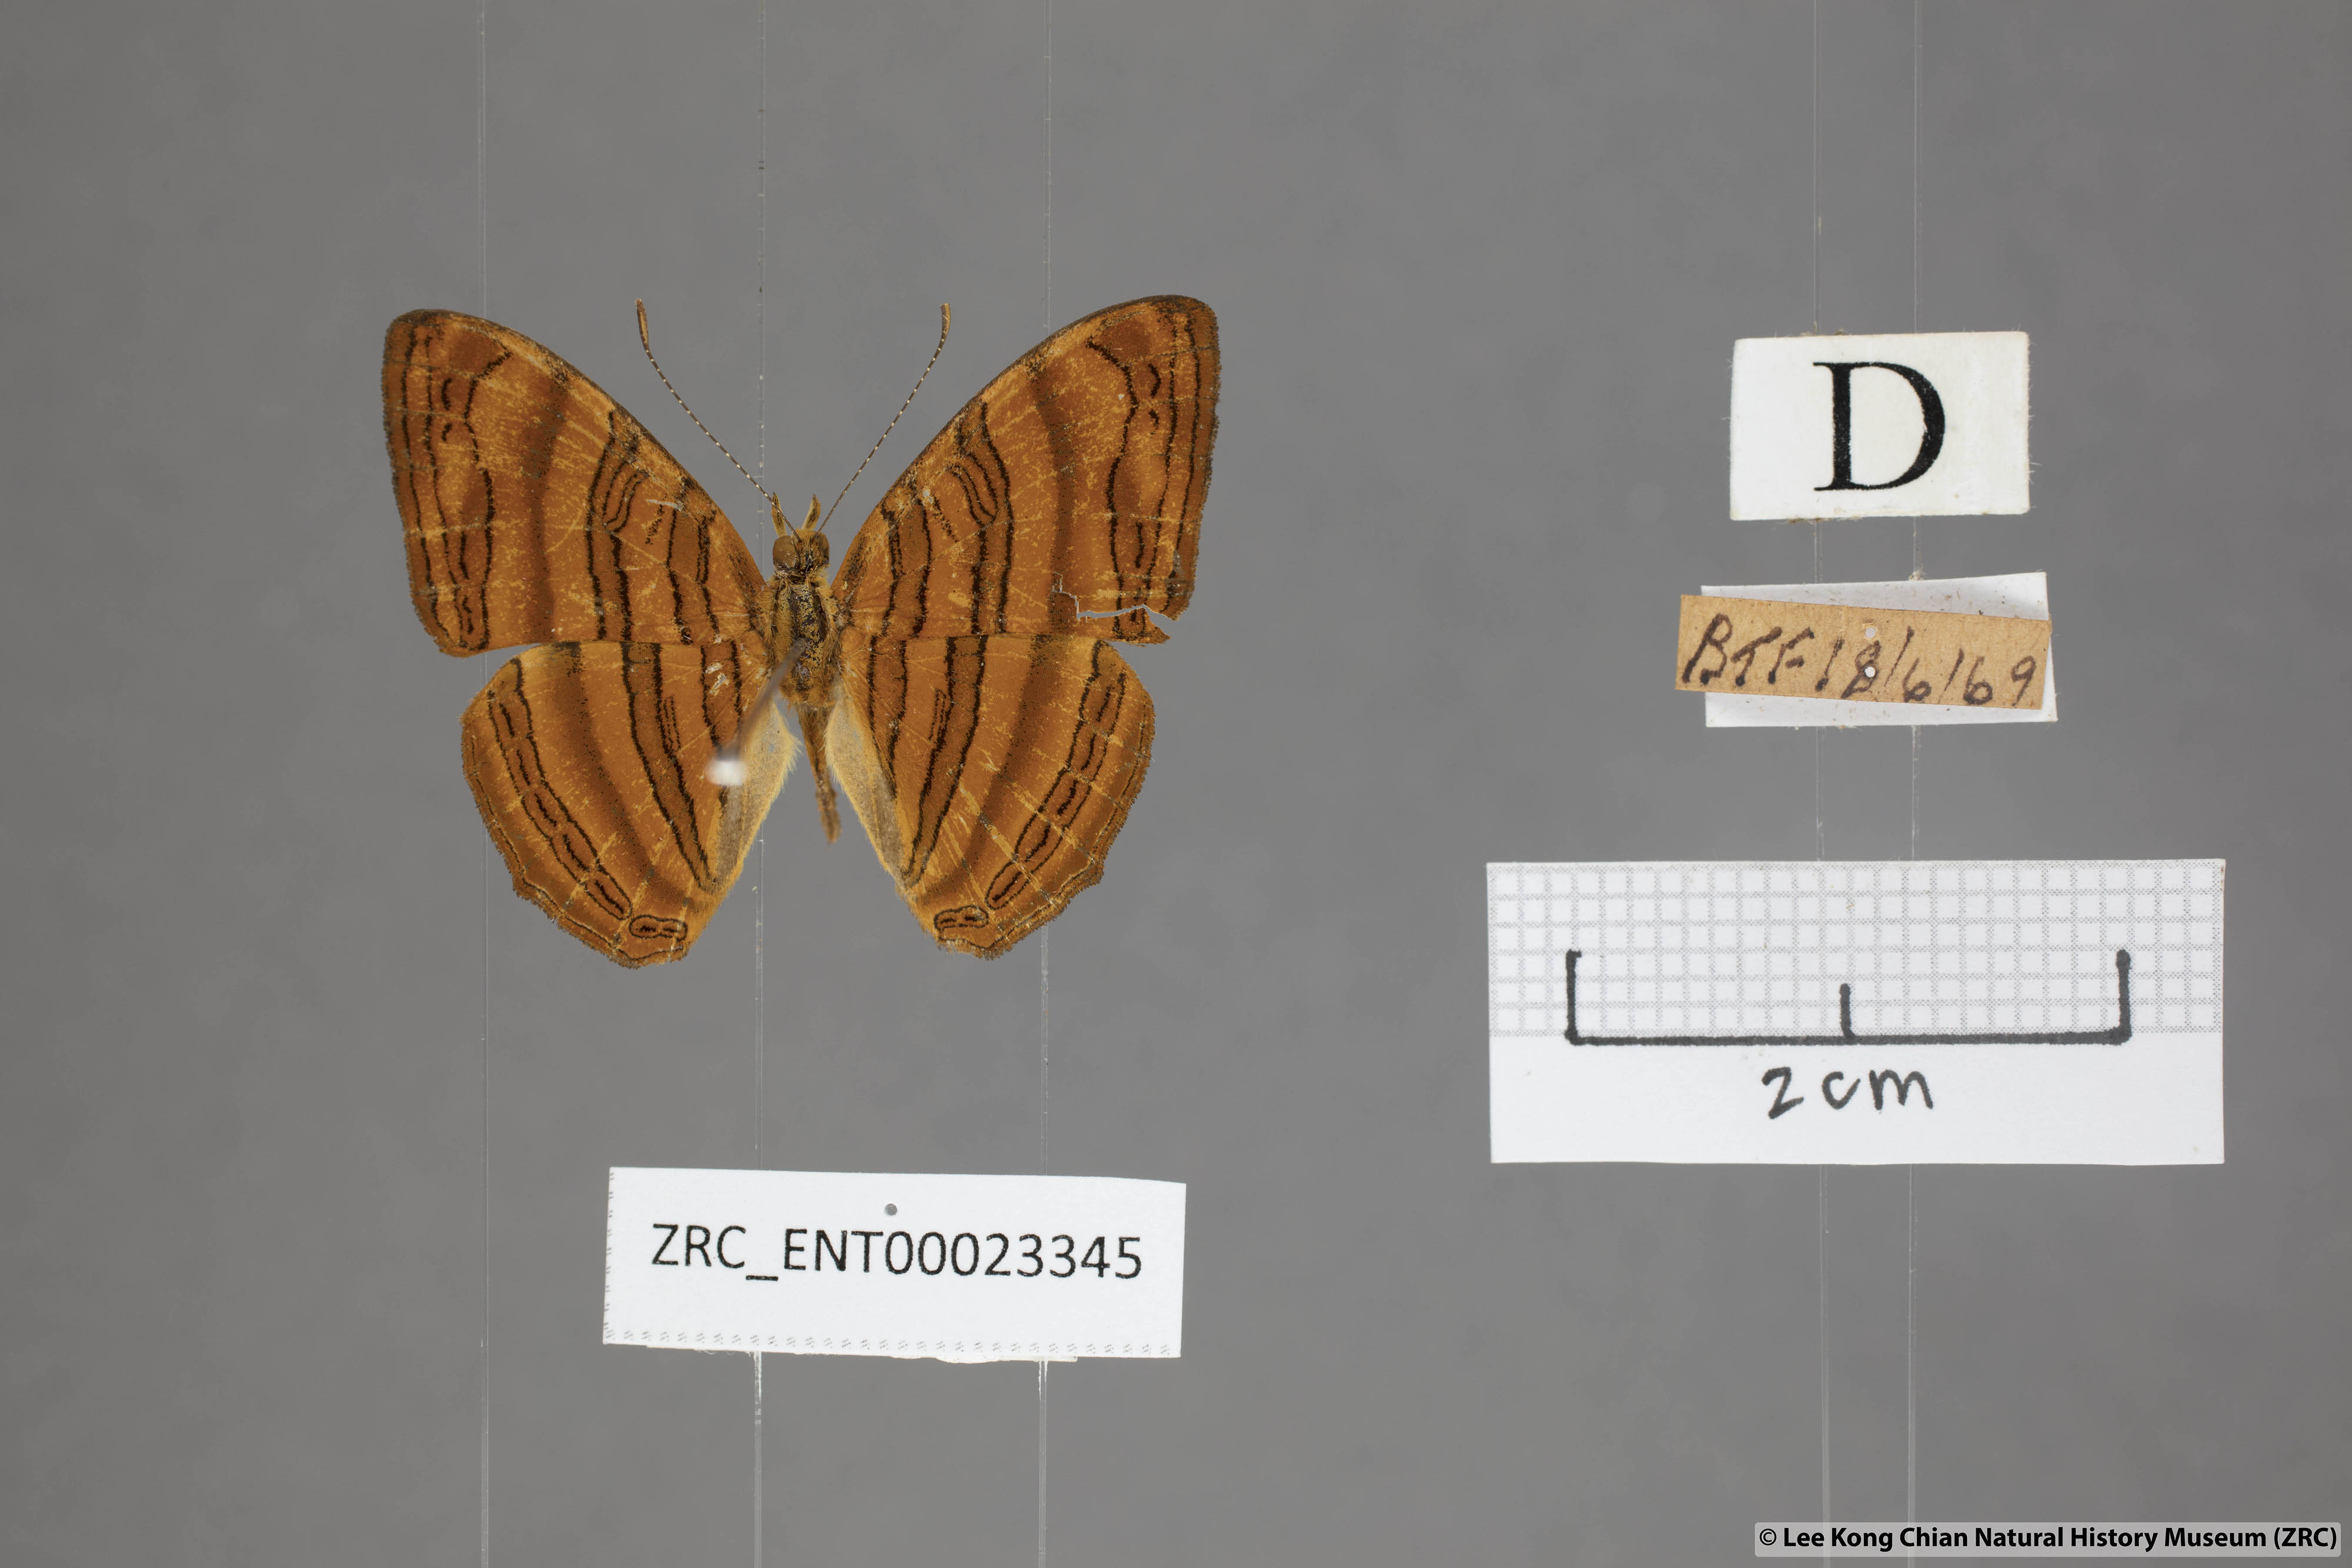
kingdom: Animalia
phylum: Arthropoda
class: Insecta
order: Lepidoptera
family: Nymphalidae
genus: Chersonesia
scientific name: Chersonesia intermedia
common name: Intermediate maplet
